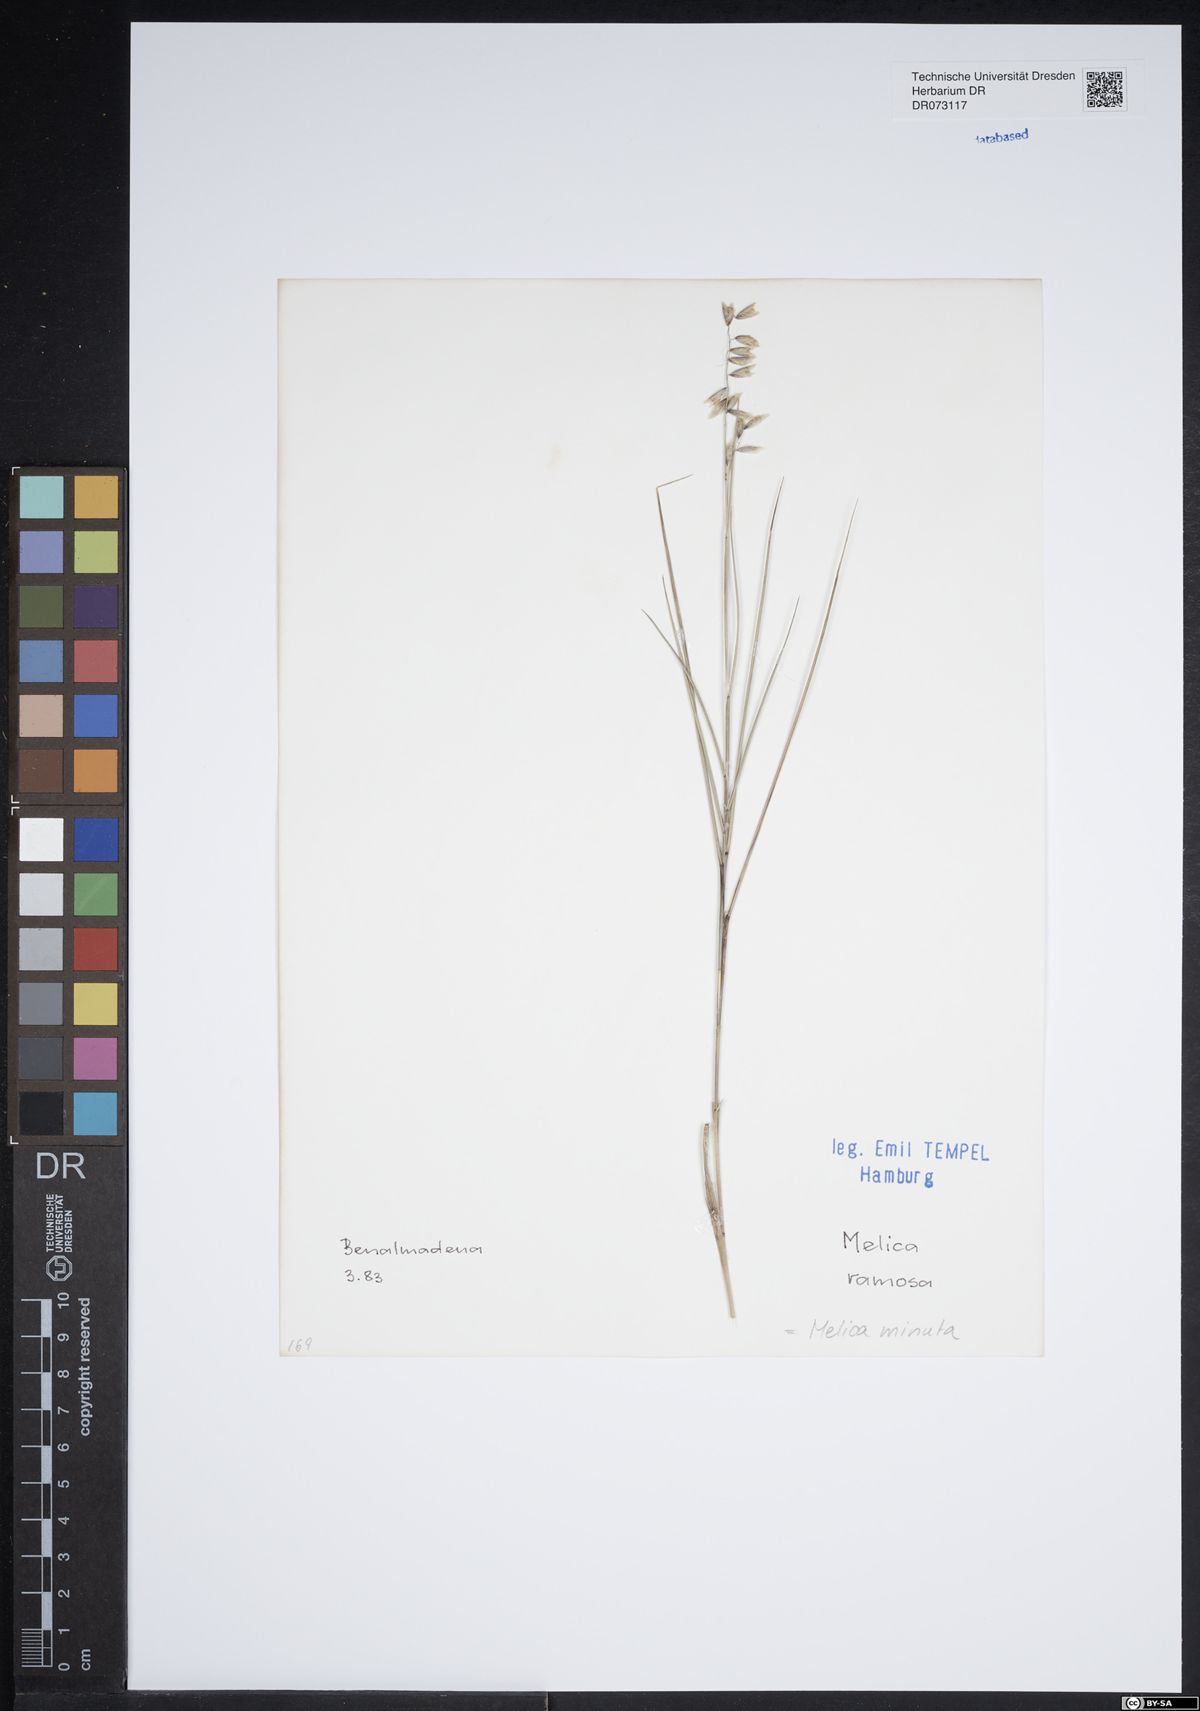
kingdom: Plantae
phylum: Tracheophyta
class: Liliopsida
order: Poales
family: Poaceae
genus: Melica
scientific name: Melica minuta
